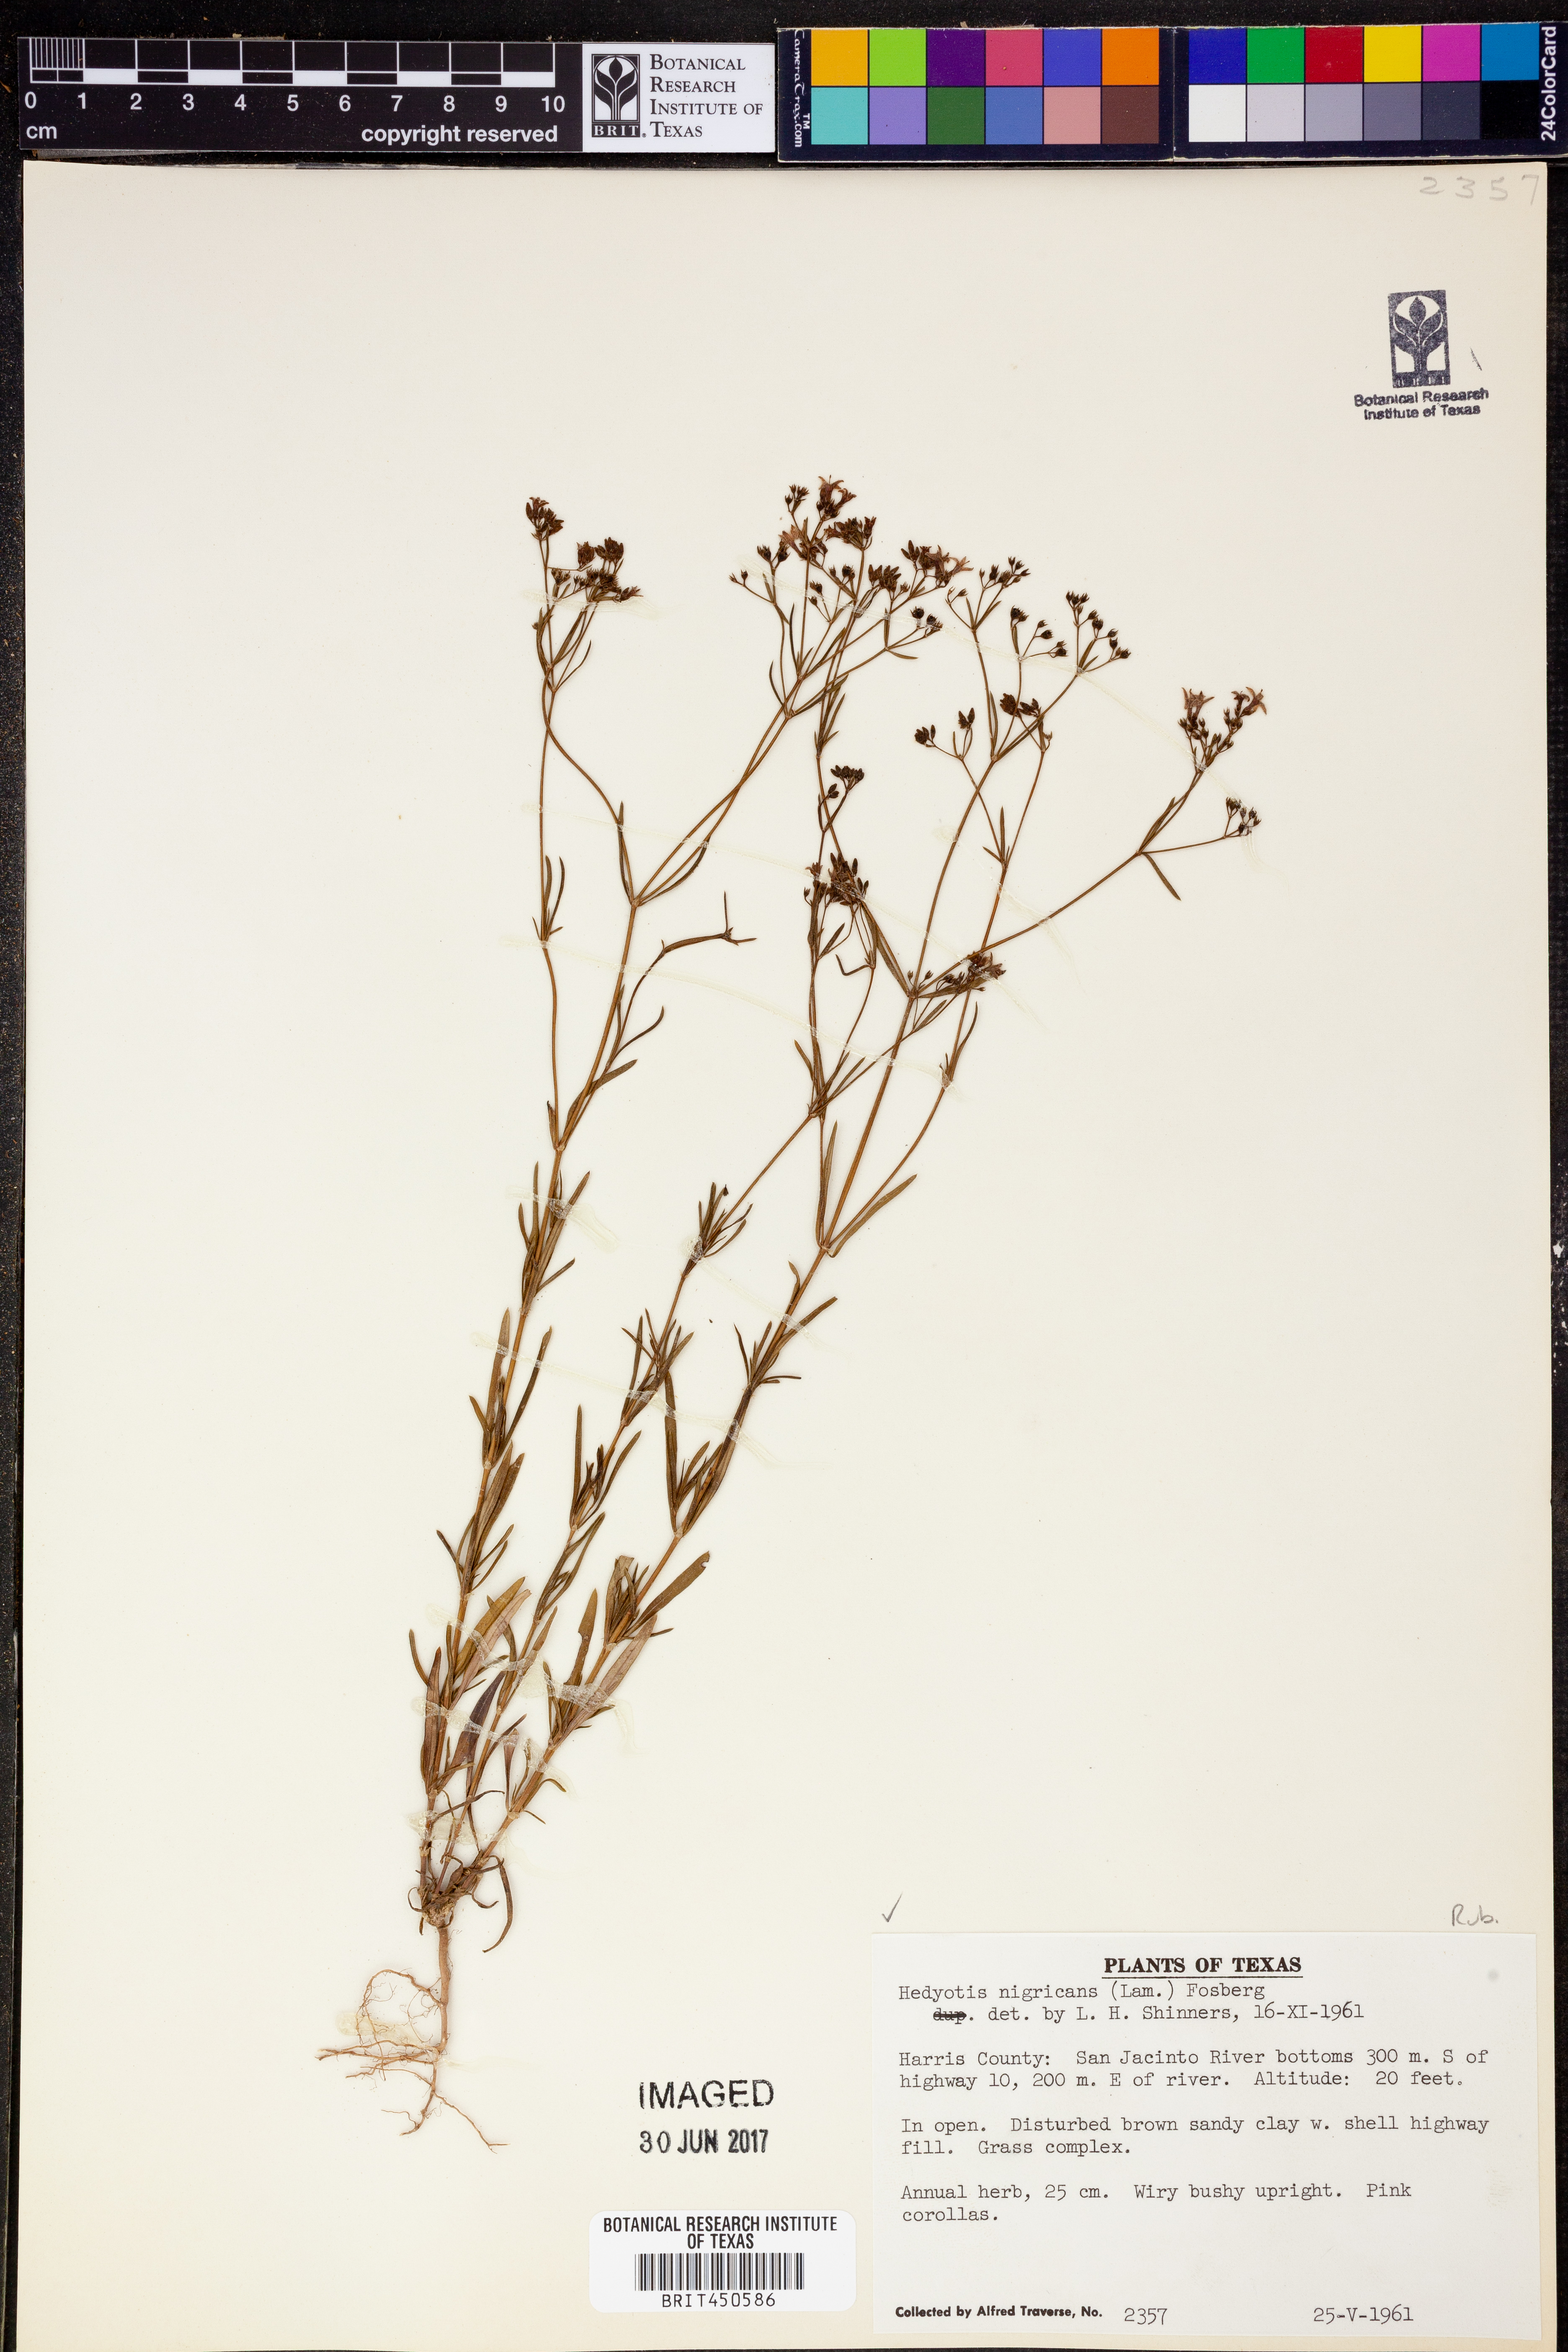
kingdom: Plantae
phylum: Tracheophyta
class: Magnoliopsida
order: Gentianales
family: Rubiaceae
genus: Stenaria
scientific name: Stenaria nigricans
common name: Diamondflowers
